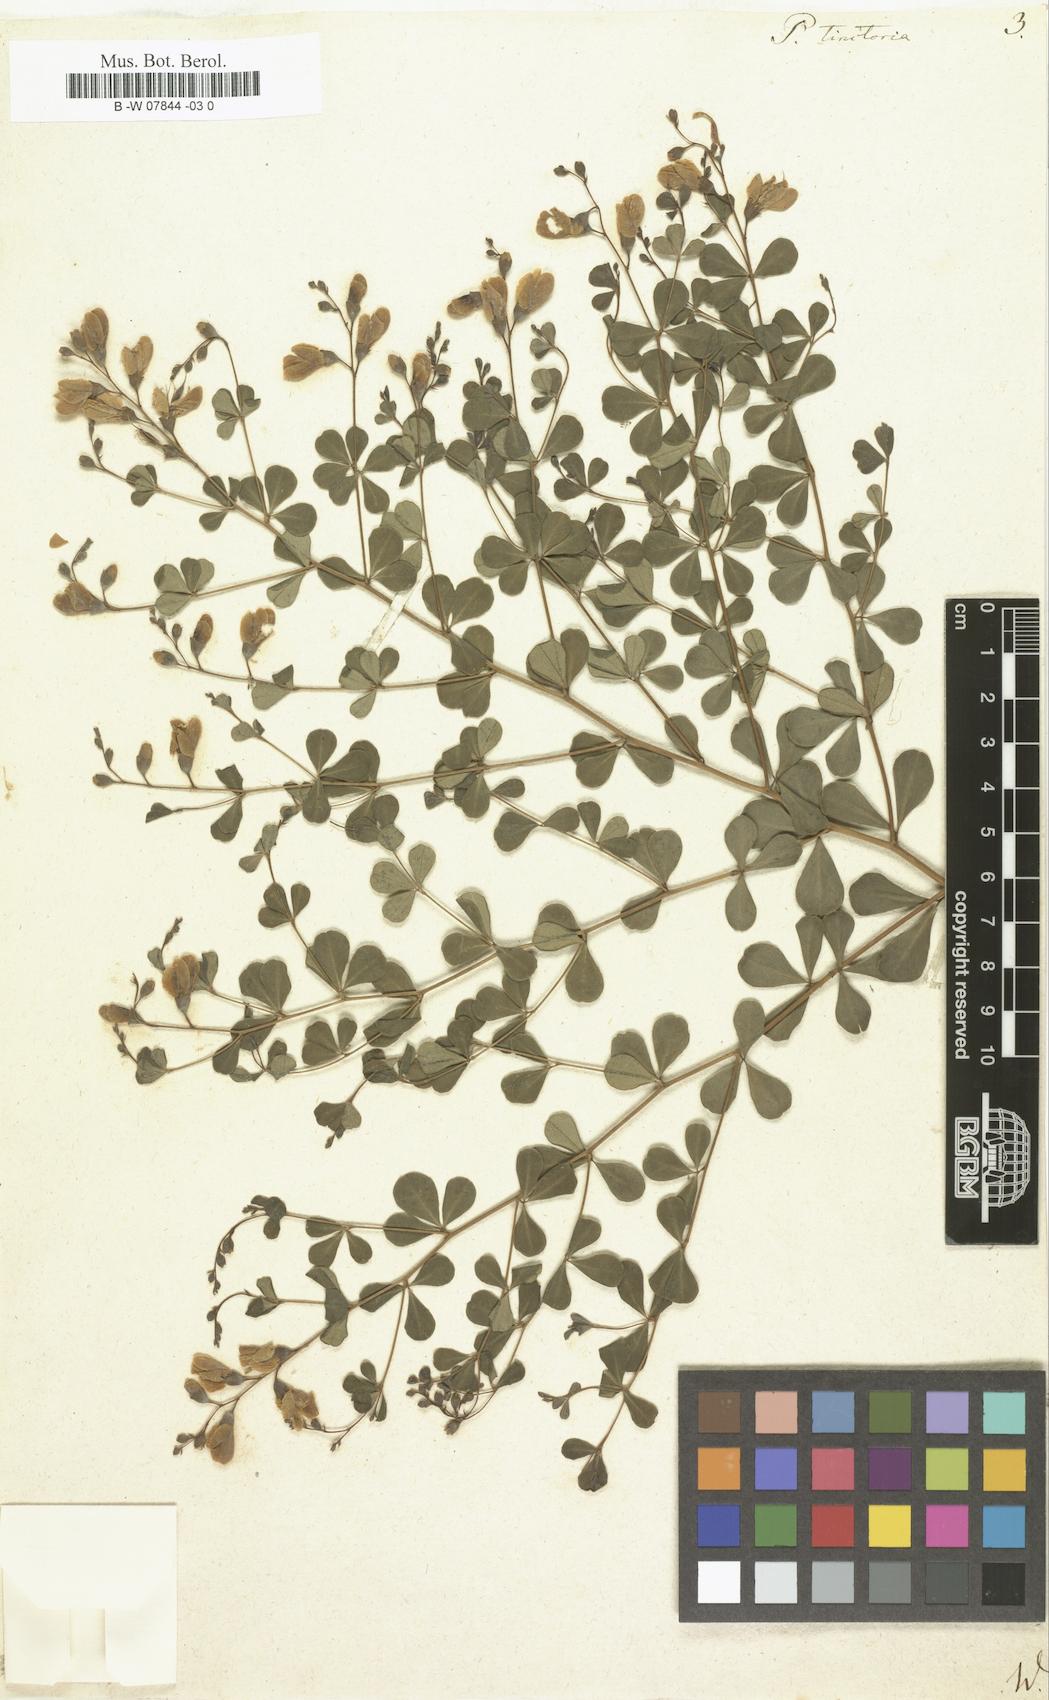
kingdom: Plantae
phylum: Tracheophyta
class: Magnoliopsida
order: Fabales
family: Fabaceae
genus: Baptisia
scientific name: Baptisia tinctoria
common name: Wild indigo
